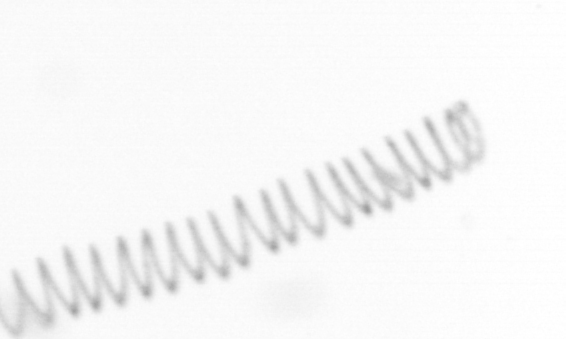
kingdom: Chromista
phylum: Ochrophyta
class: Bacillariophyceae
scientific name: Bacillariophyceae
